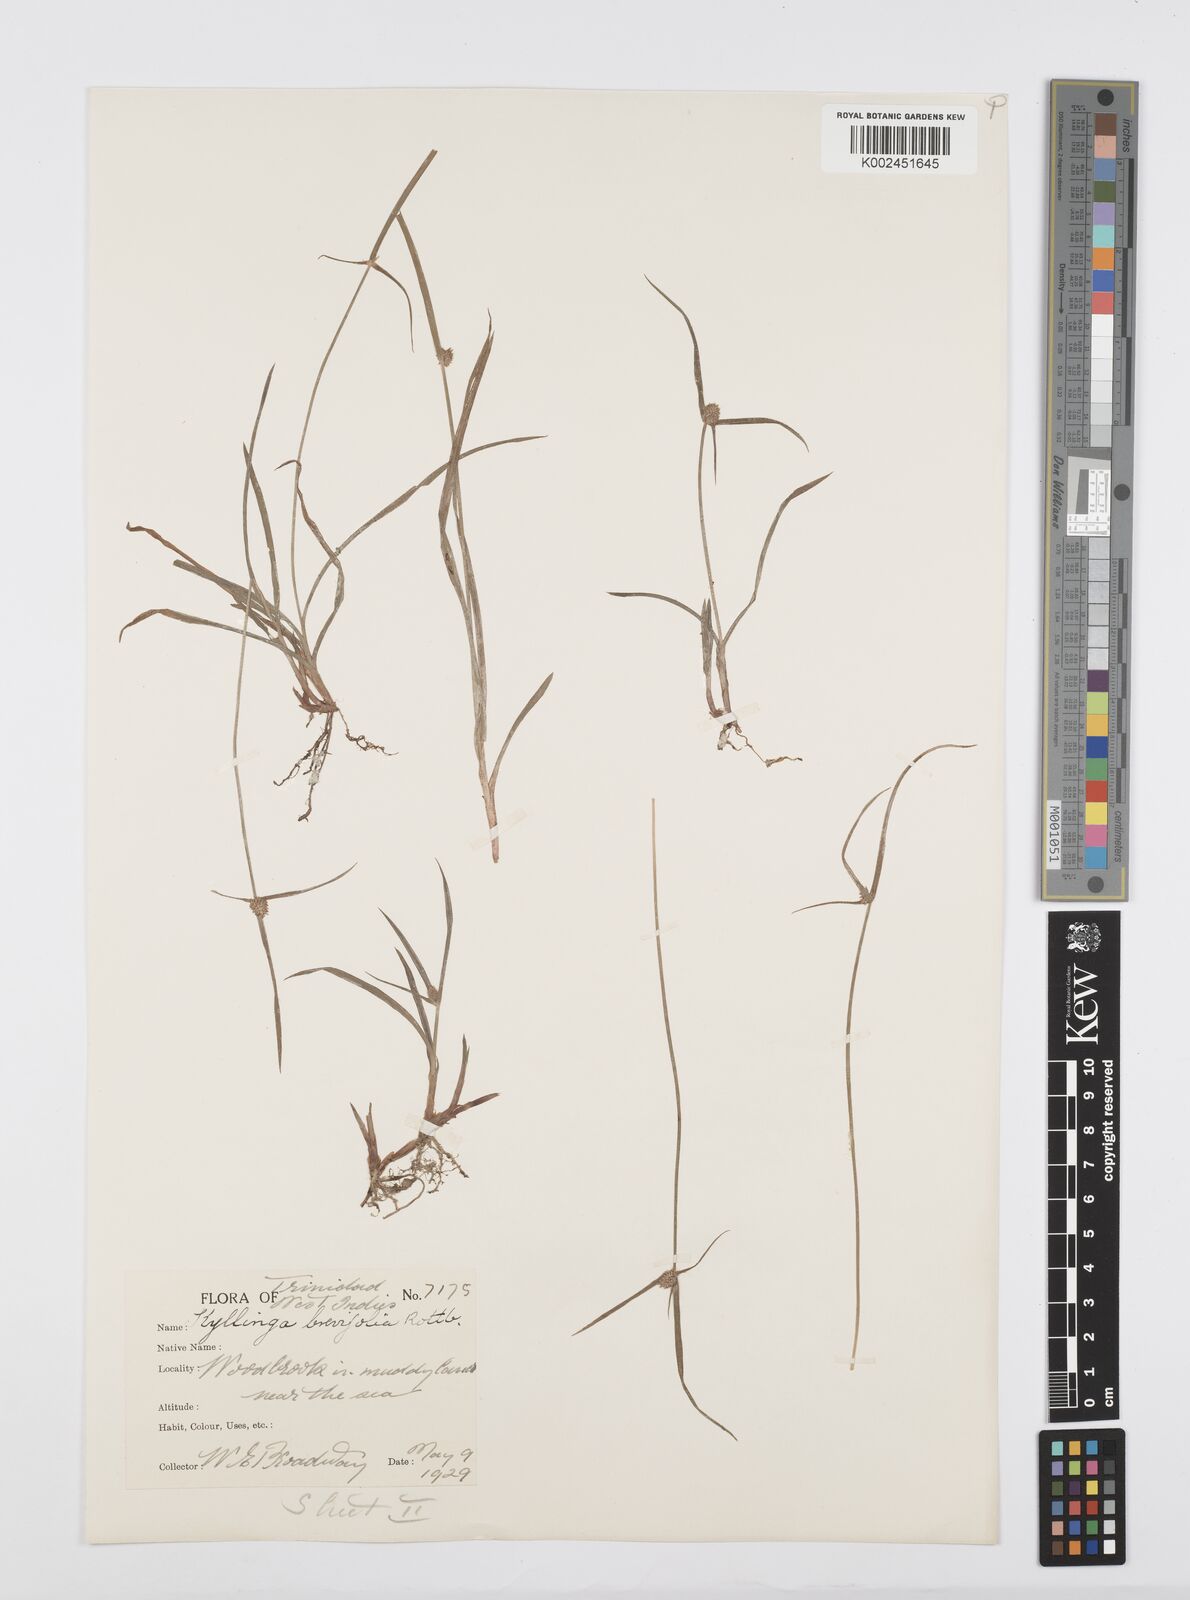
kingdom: Plantae
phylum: Tracheophyta
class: Liliopsida
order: Poales
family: Cyperaceae
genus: Cyperus
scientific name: Cyperus brevifolius
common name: Globe kyllinga
